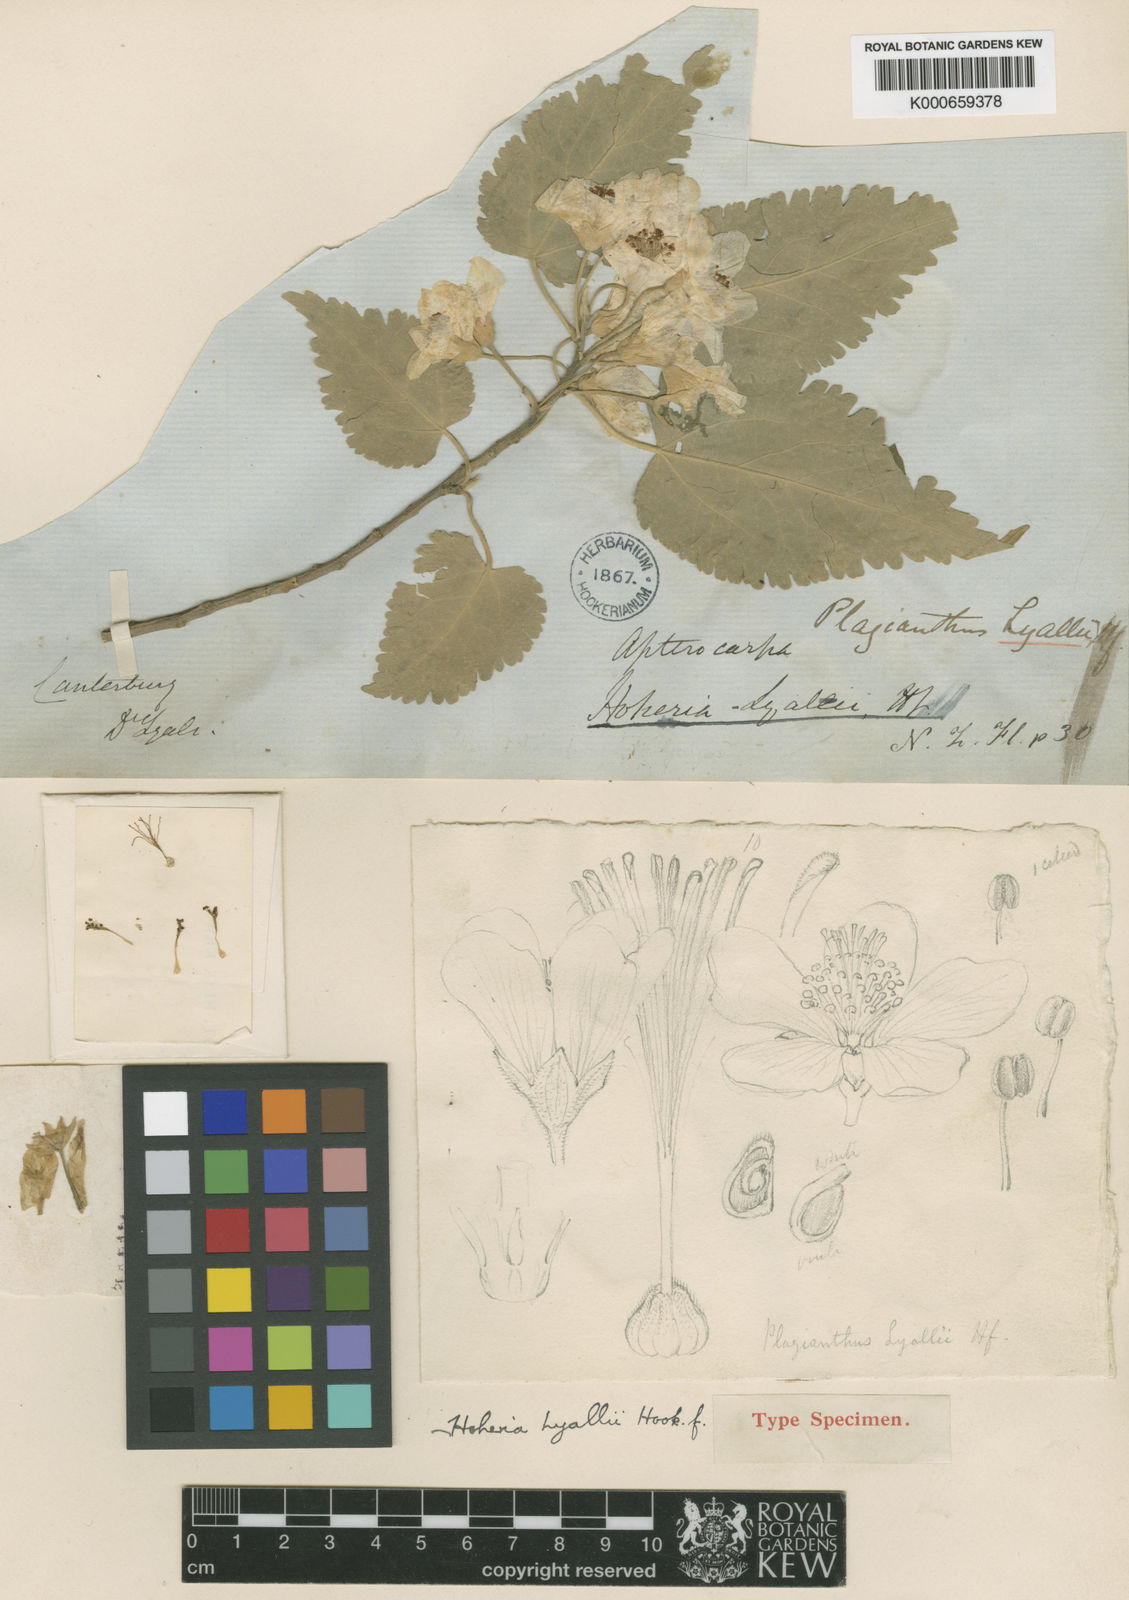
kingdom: Plantae
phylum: Tracheophyta
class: Magnoliopsida
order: Malvales
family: Malvaceae
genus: Hoheria
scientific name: Hoheria lyallii
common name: Lacebark
